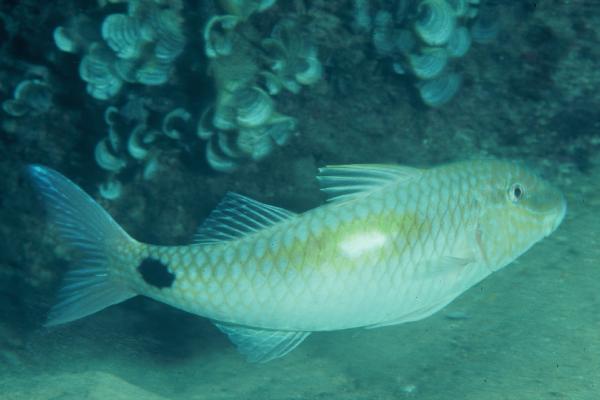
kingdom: Animalia
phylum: Chordata
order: Perciformes
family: Mullidae
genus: Parupeneus
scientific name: Parupeneus indicus
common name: Indian goatfish
